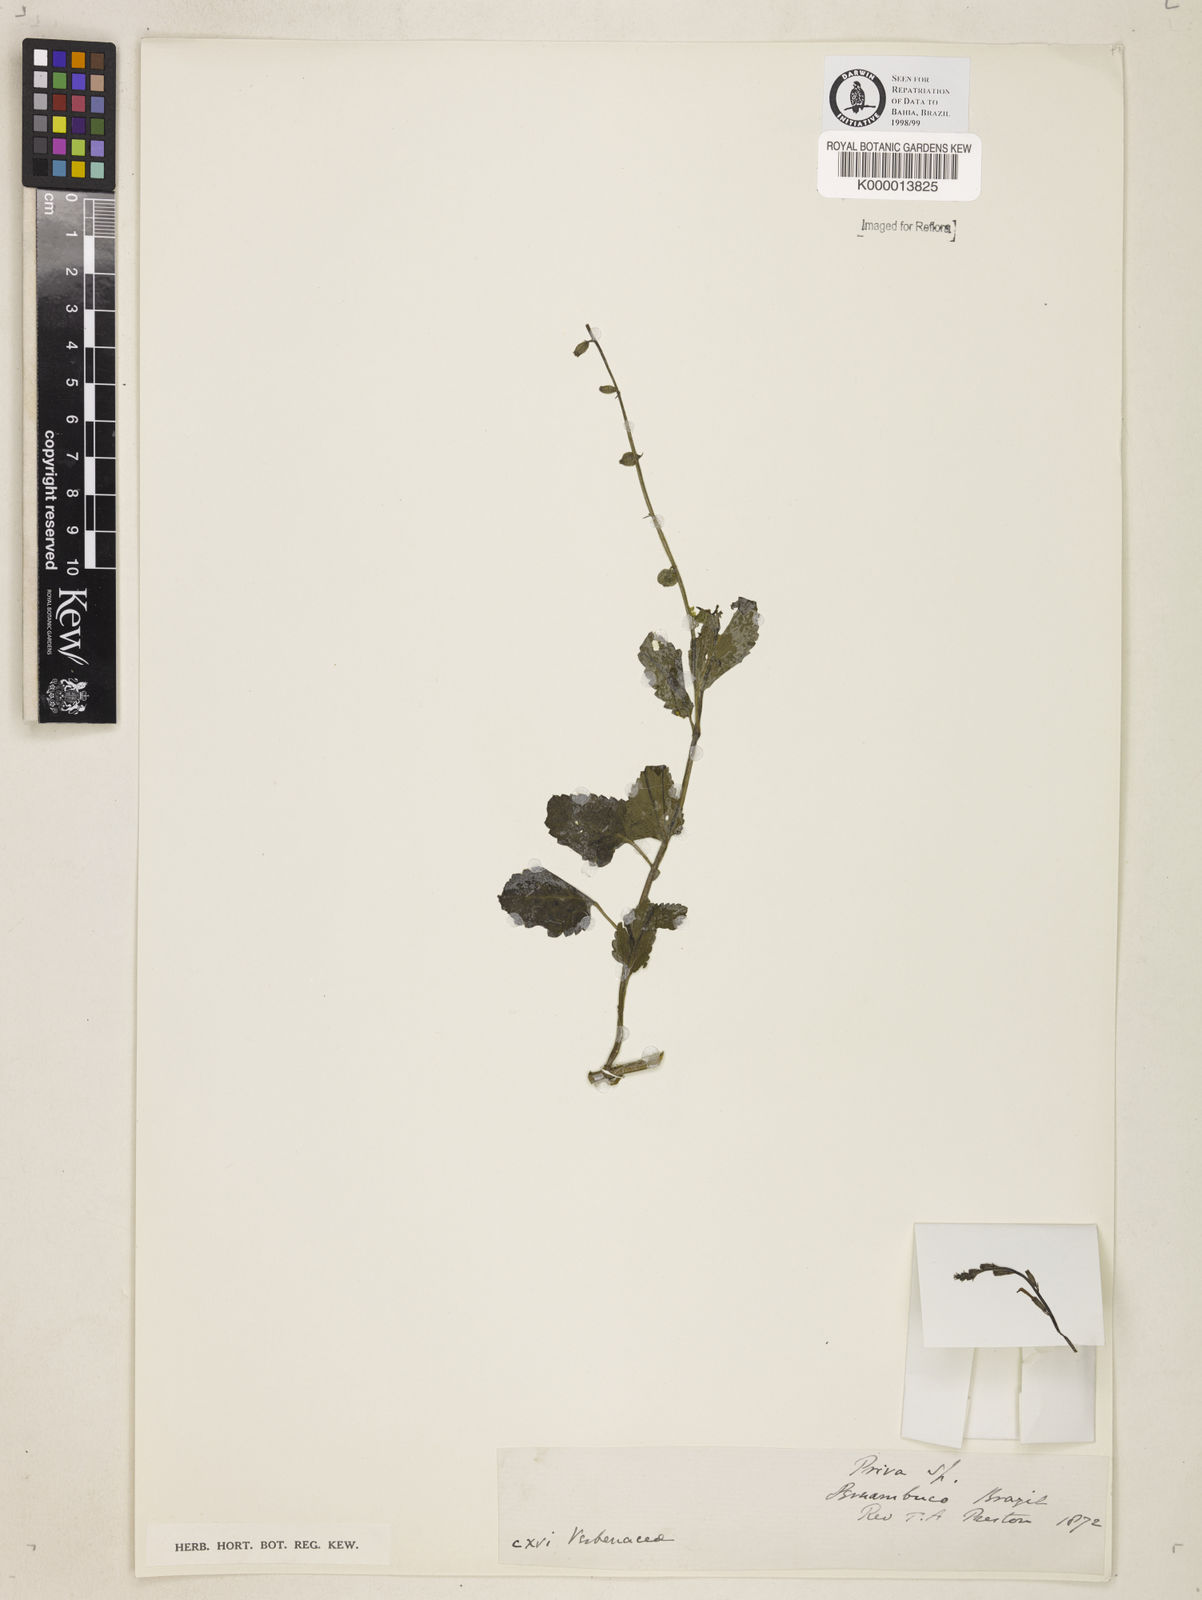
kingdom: Plantae
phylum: Tracheophyta
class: Magnoliopsida
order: Lamiales
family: Verbenaceae
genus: Priva
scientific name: Priva
